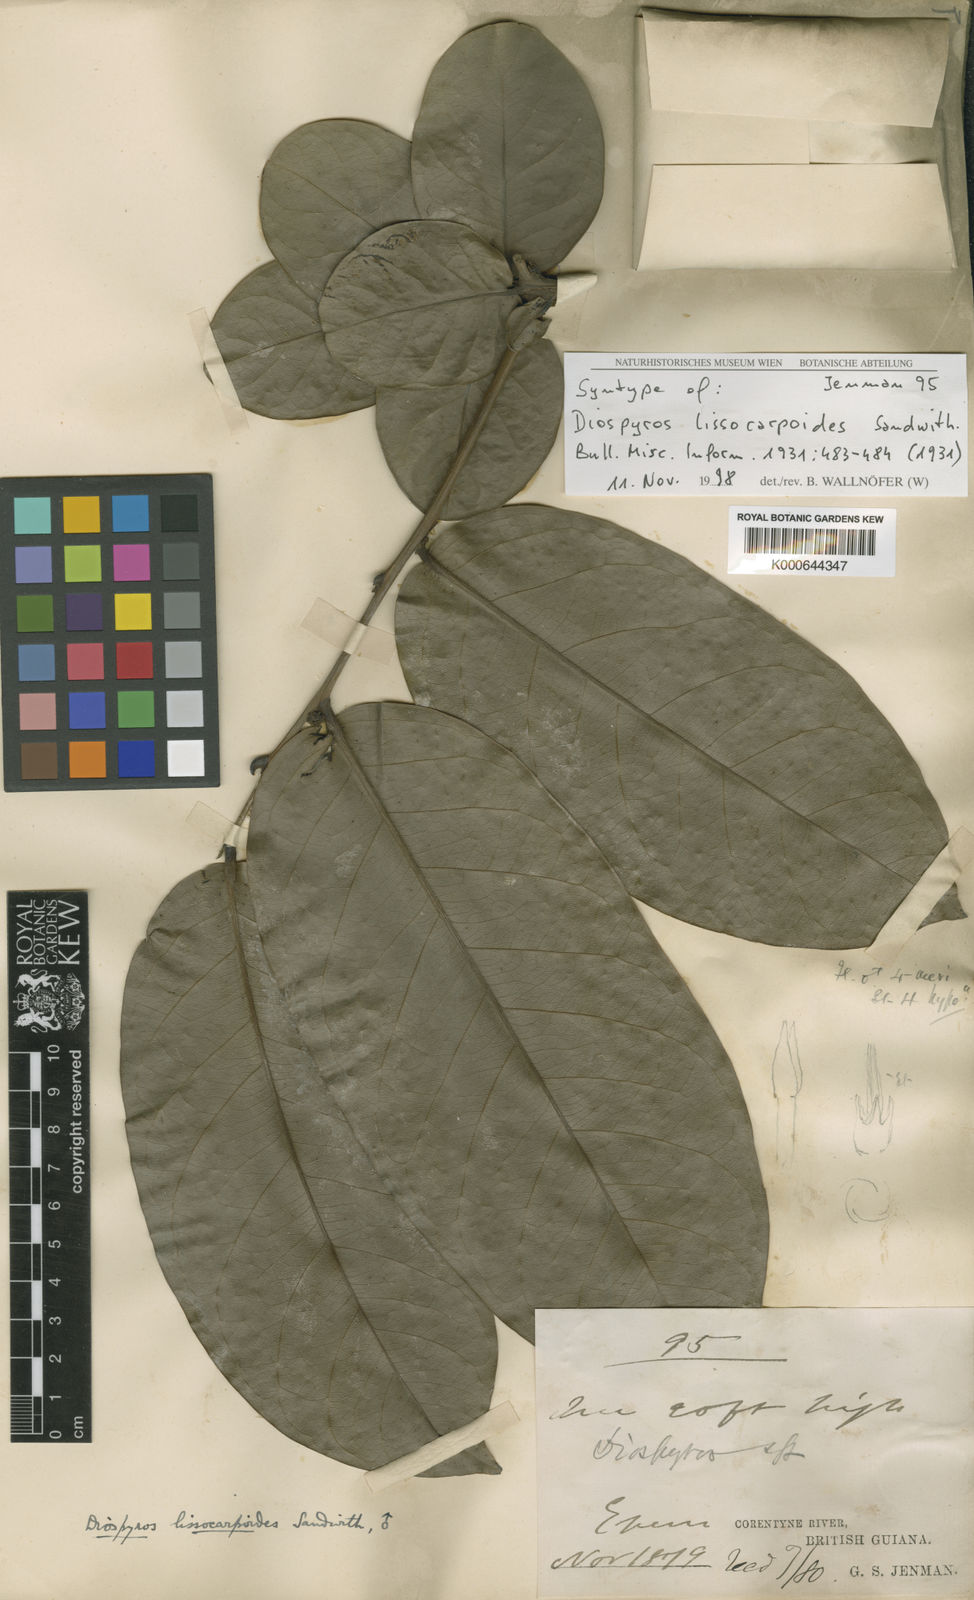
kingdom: Plantae
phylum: Tracheophyta
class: Magnoliopsida
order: Ericales
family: Ebenaceae
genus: Diospyros
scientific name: Diospyros lissocarpoides
